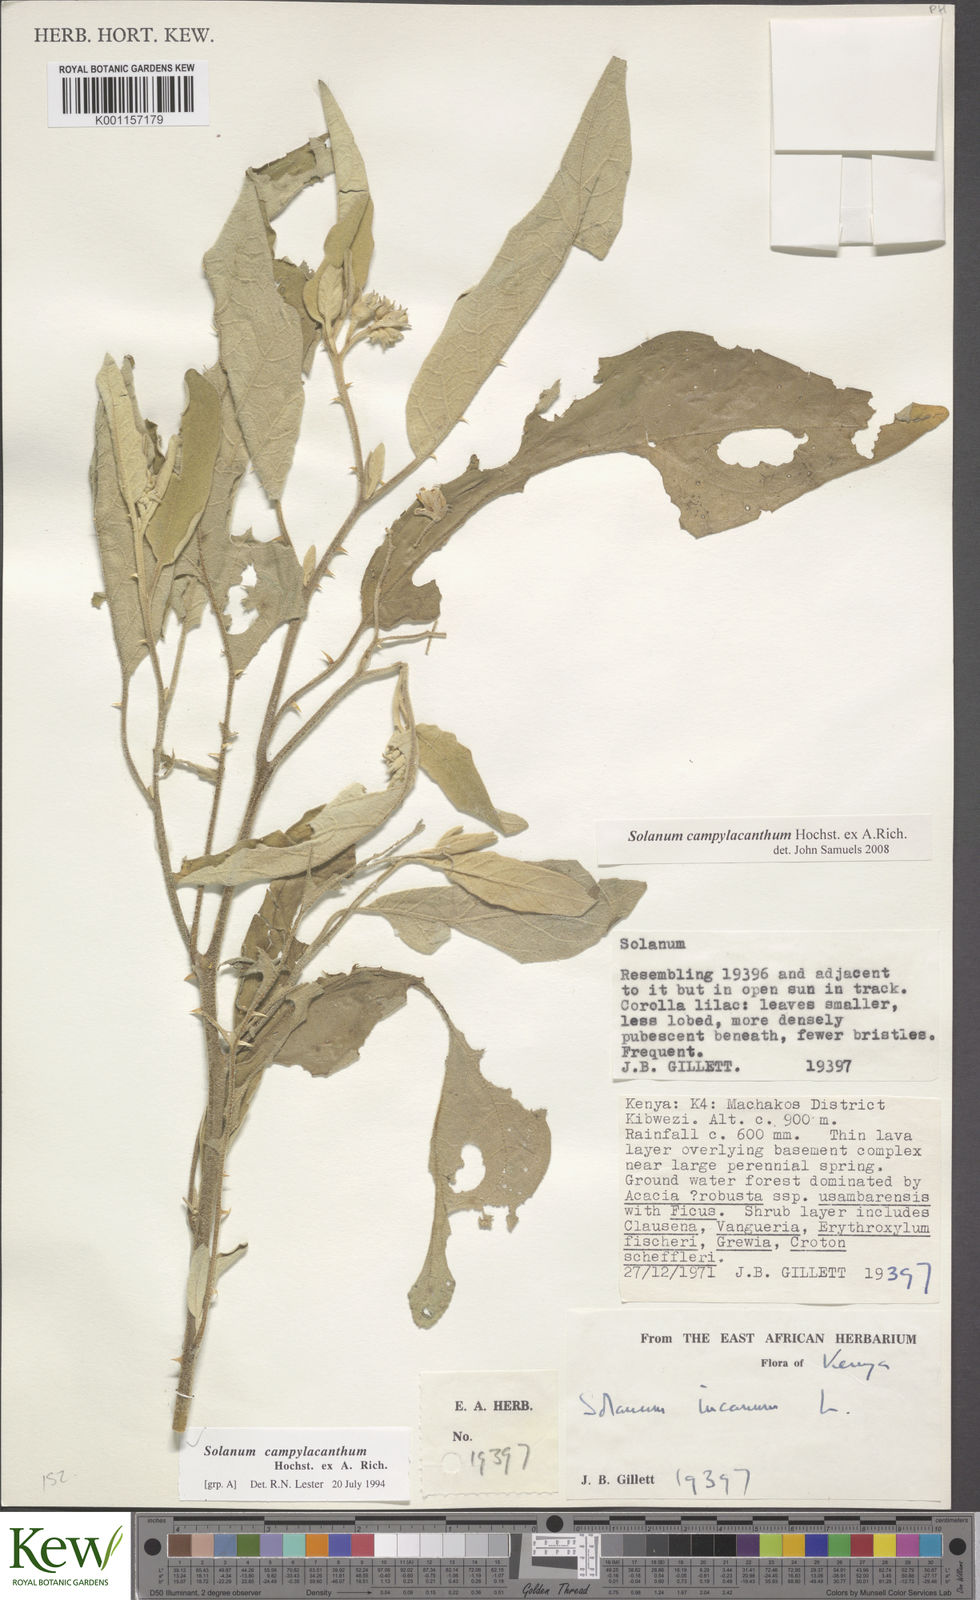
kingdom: Plantae
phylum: Tracheophyta
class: Magnoliopsida
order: Solanales
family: Solanaceae
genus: Solanum
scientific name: Solanum campylacanthum
